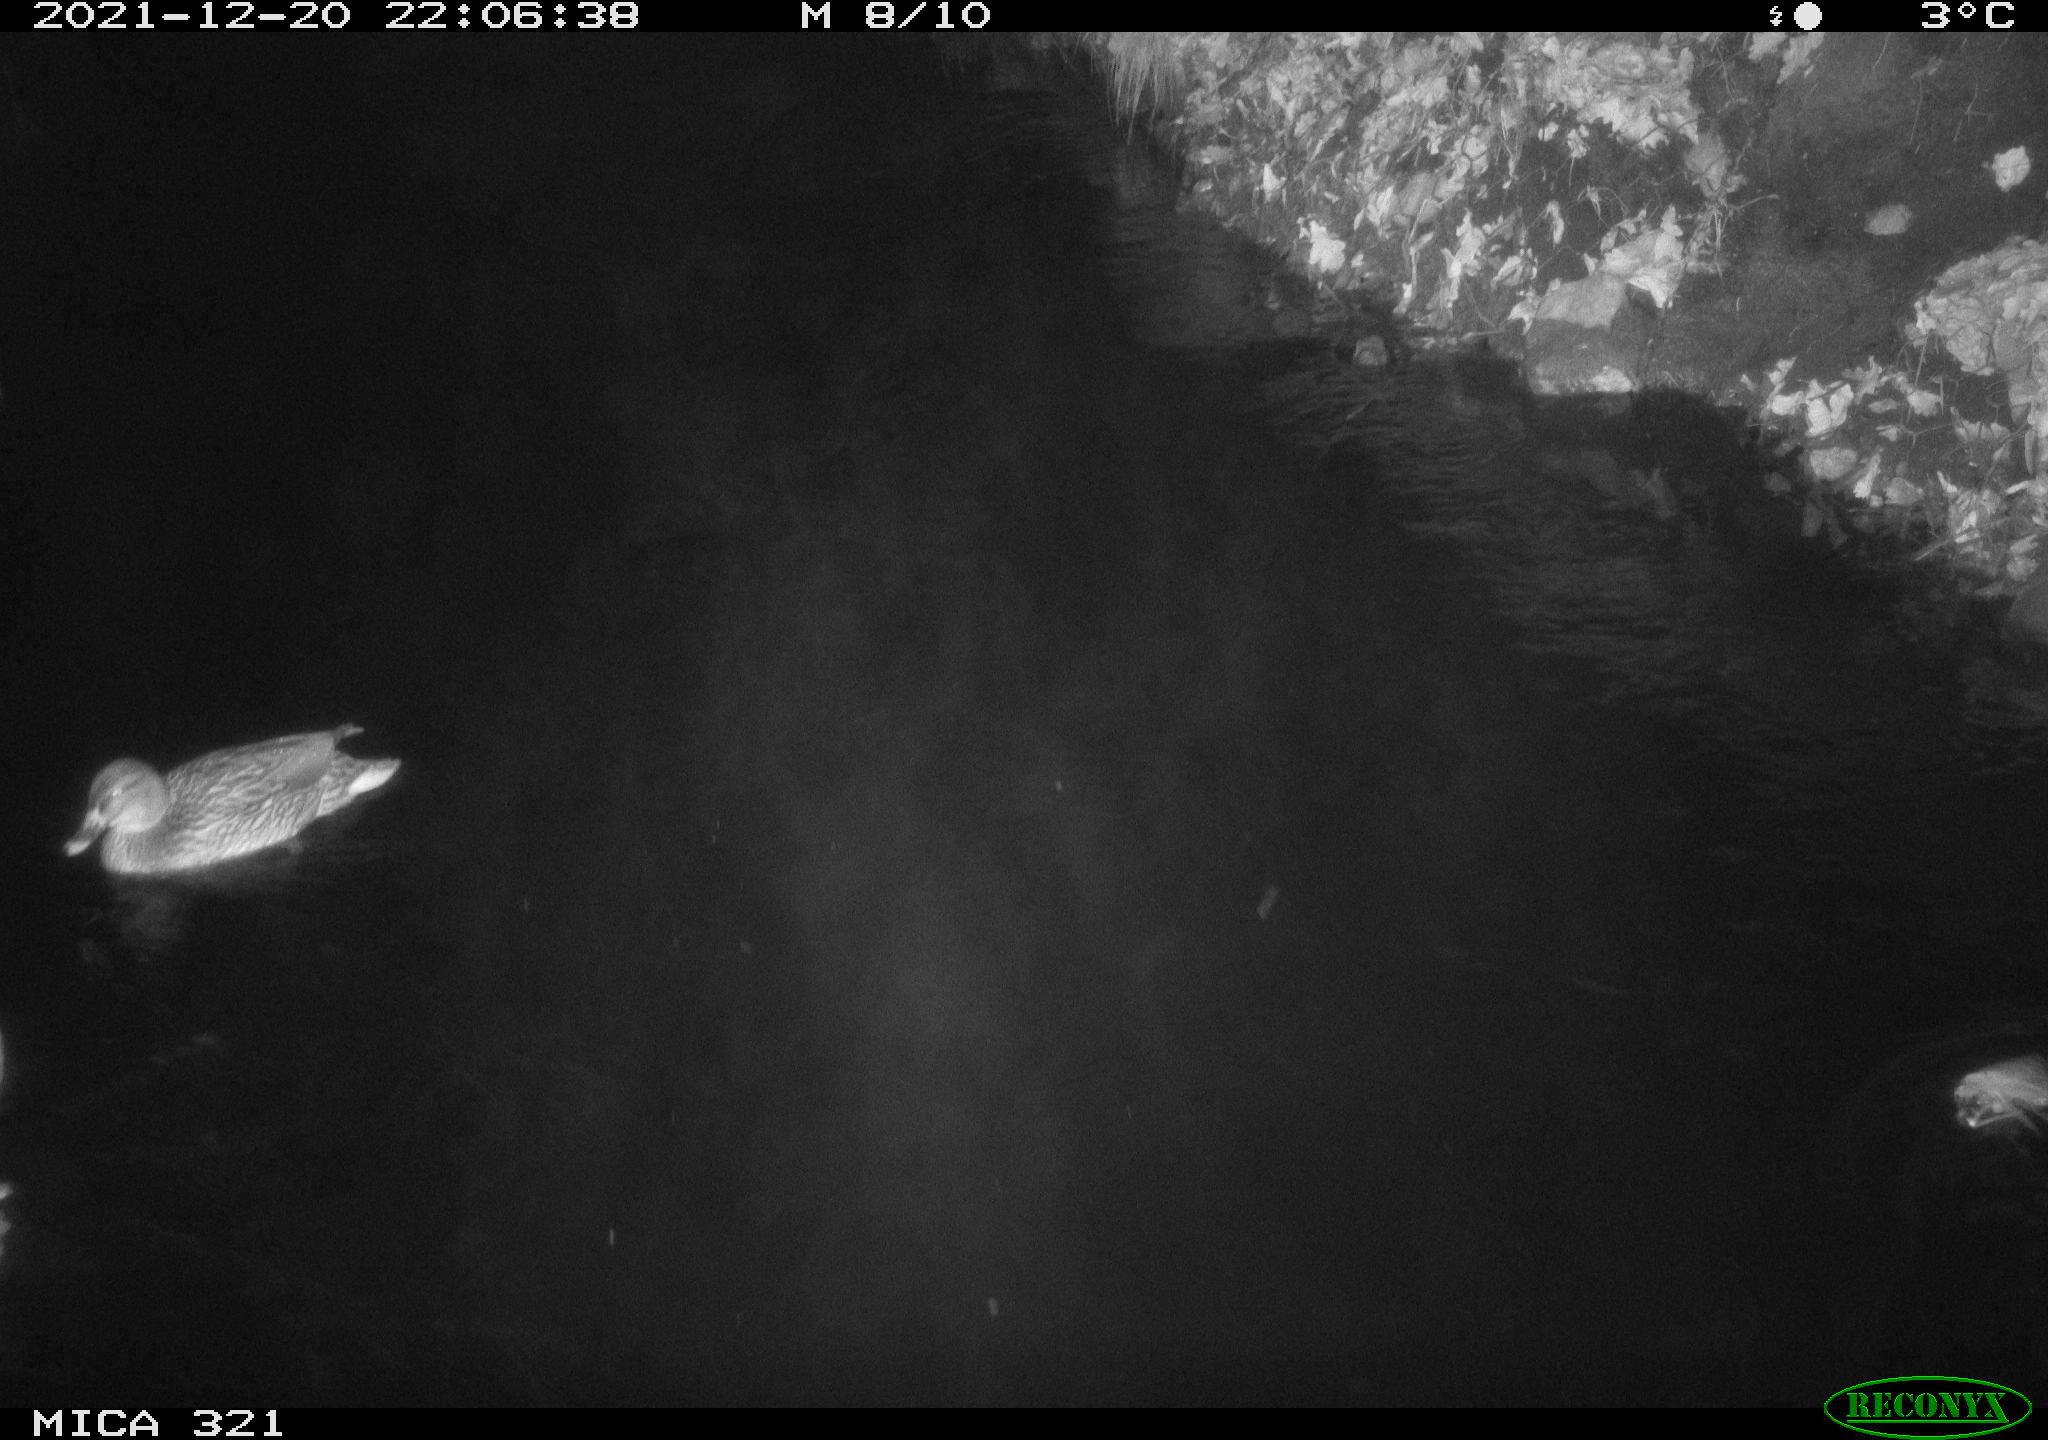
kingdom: Animalia
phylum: Chordata
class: Aves
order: Anseriformes
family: Anatidae
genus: Anas
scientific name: Anas
